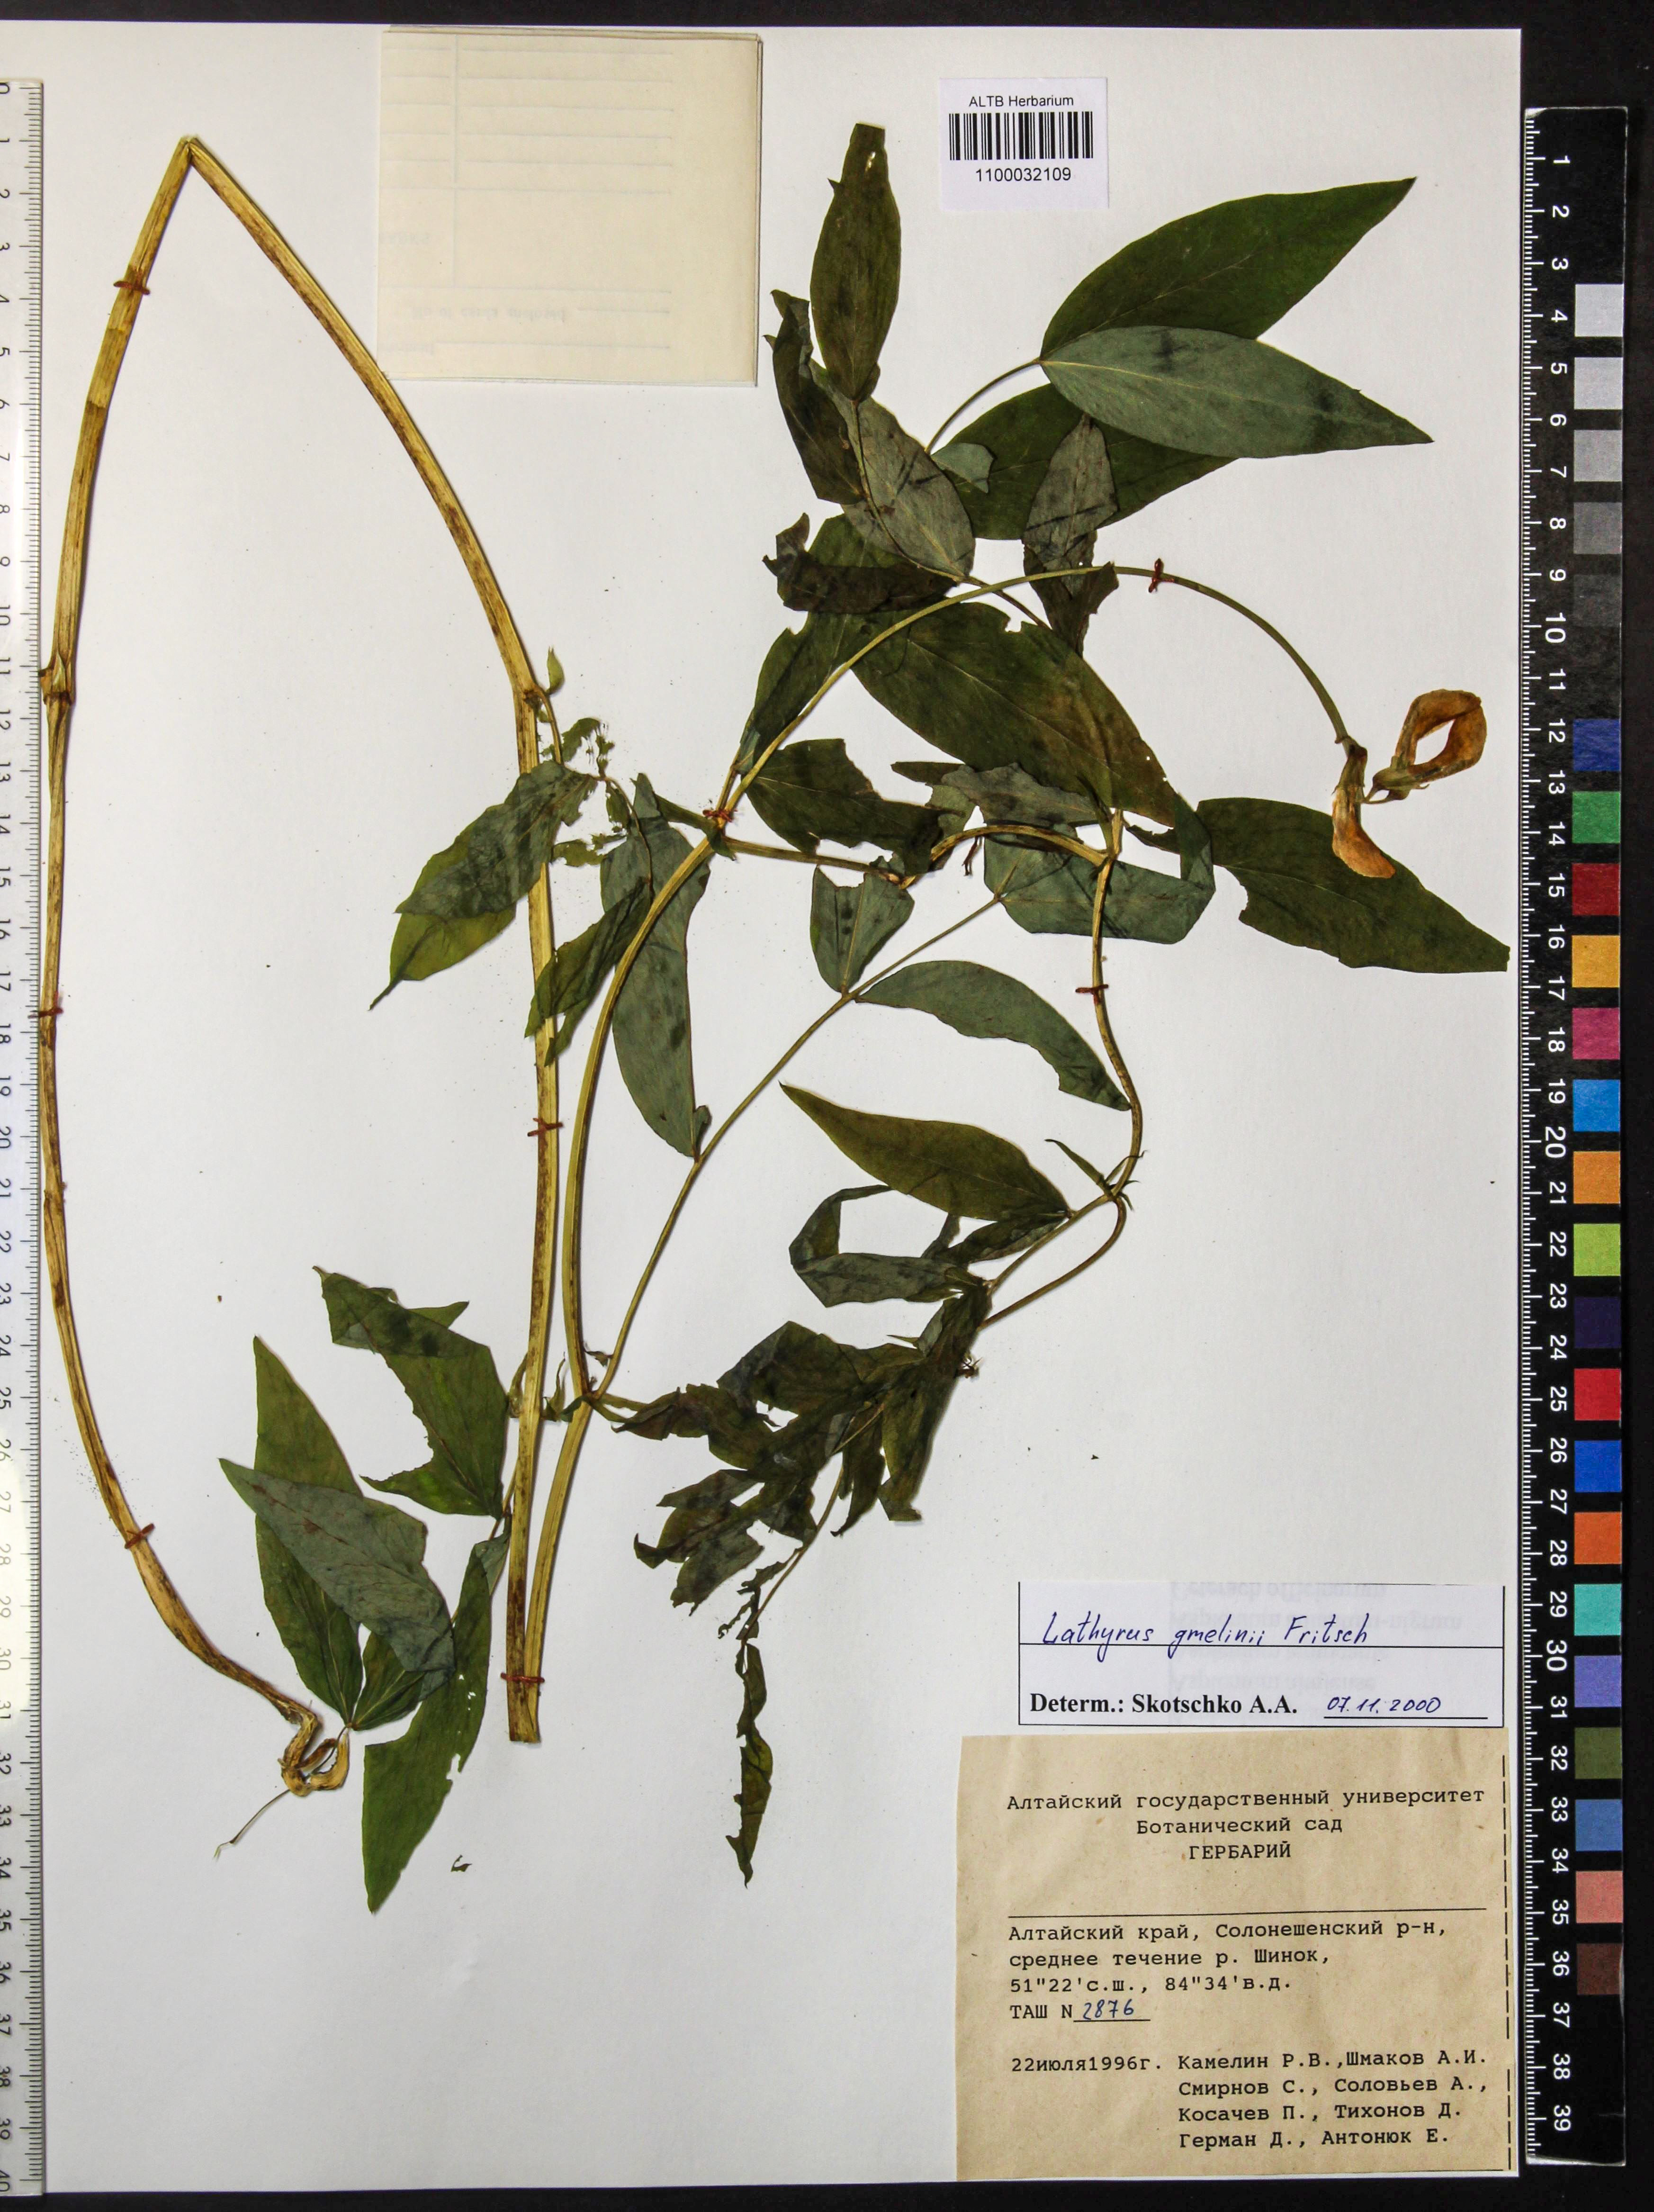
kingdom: Plantae
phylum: Tracheophyta
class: Magnoliopsida
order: Fabales
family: Fabaceae
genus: Lathyrus
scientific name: Lathyrus gmelinii
